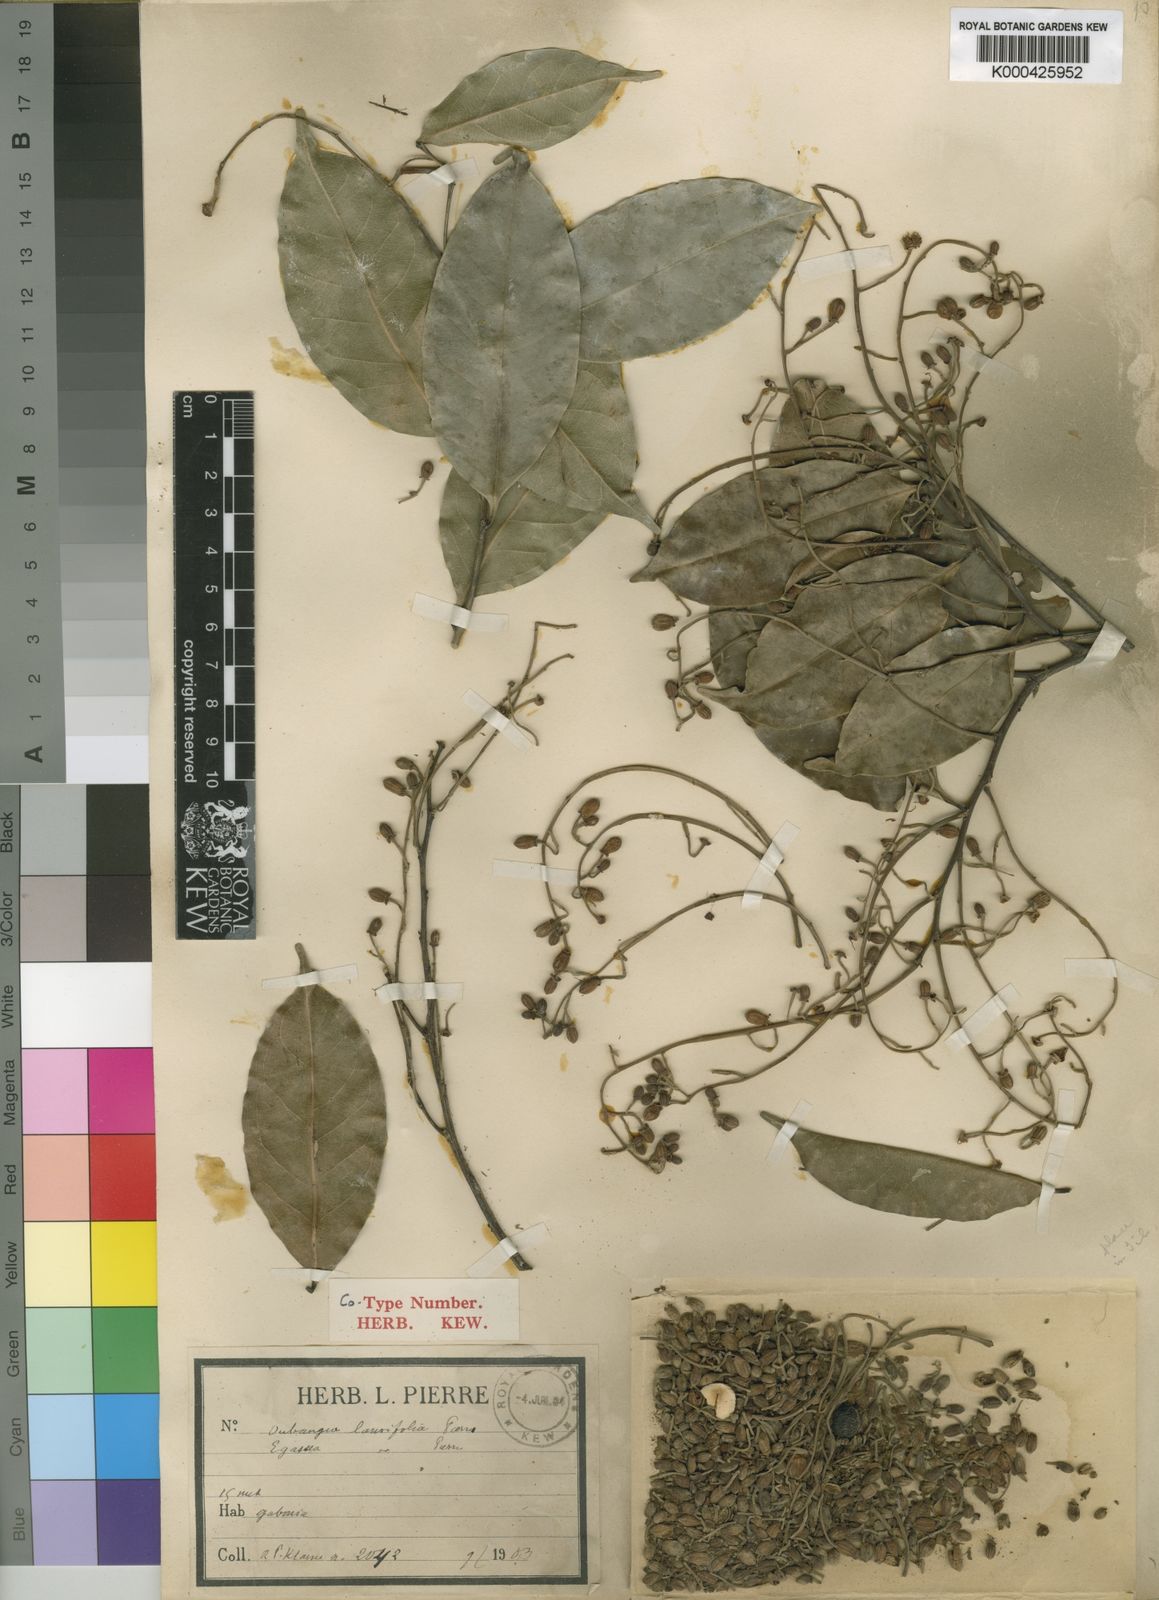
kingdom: Plantae
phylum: Tracheophyta
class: Magnoliopsida
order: Ericales
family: Lecythidaceae
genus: Oubanguia
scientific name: Oubanguia laurifolia
